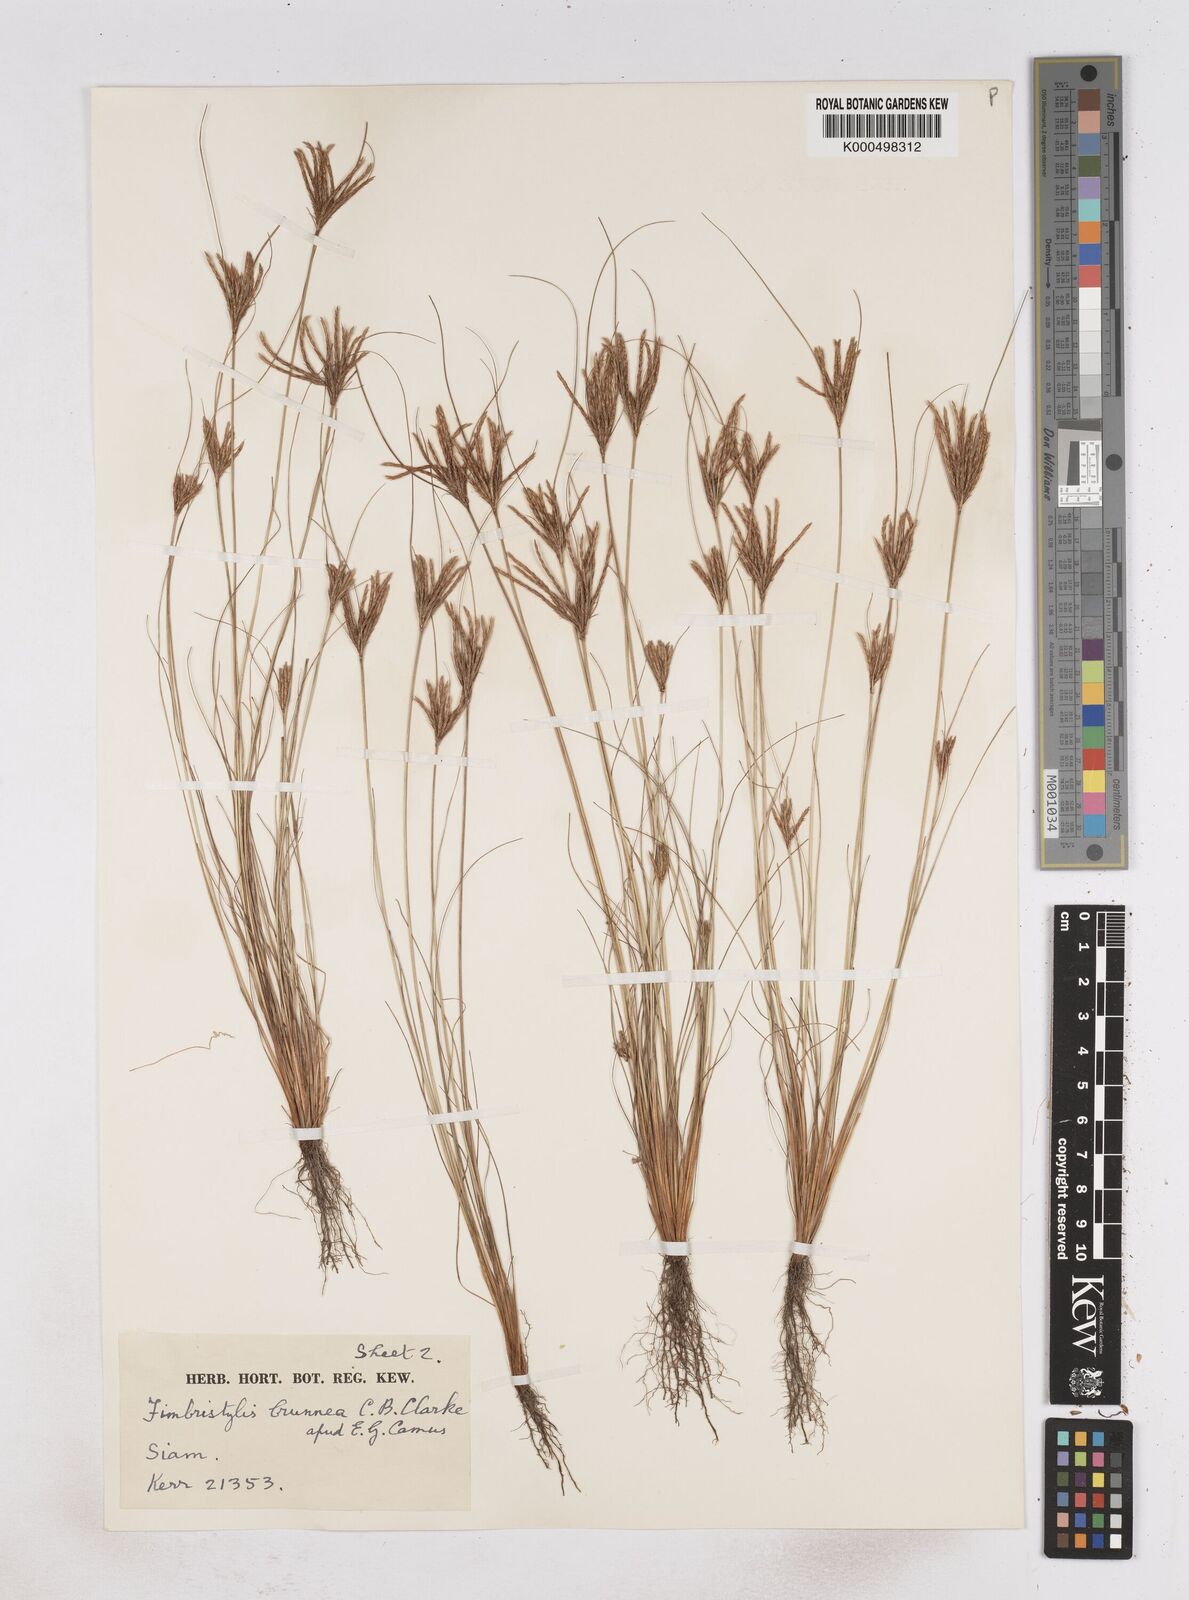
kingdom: Plantae
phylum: Tracheophyta
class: Liliopsida
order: Poales
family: Cyperaceae
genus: Fimbristylis
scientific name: Fimbristylis jucunda
